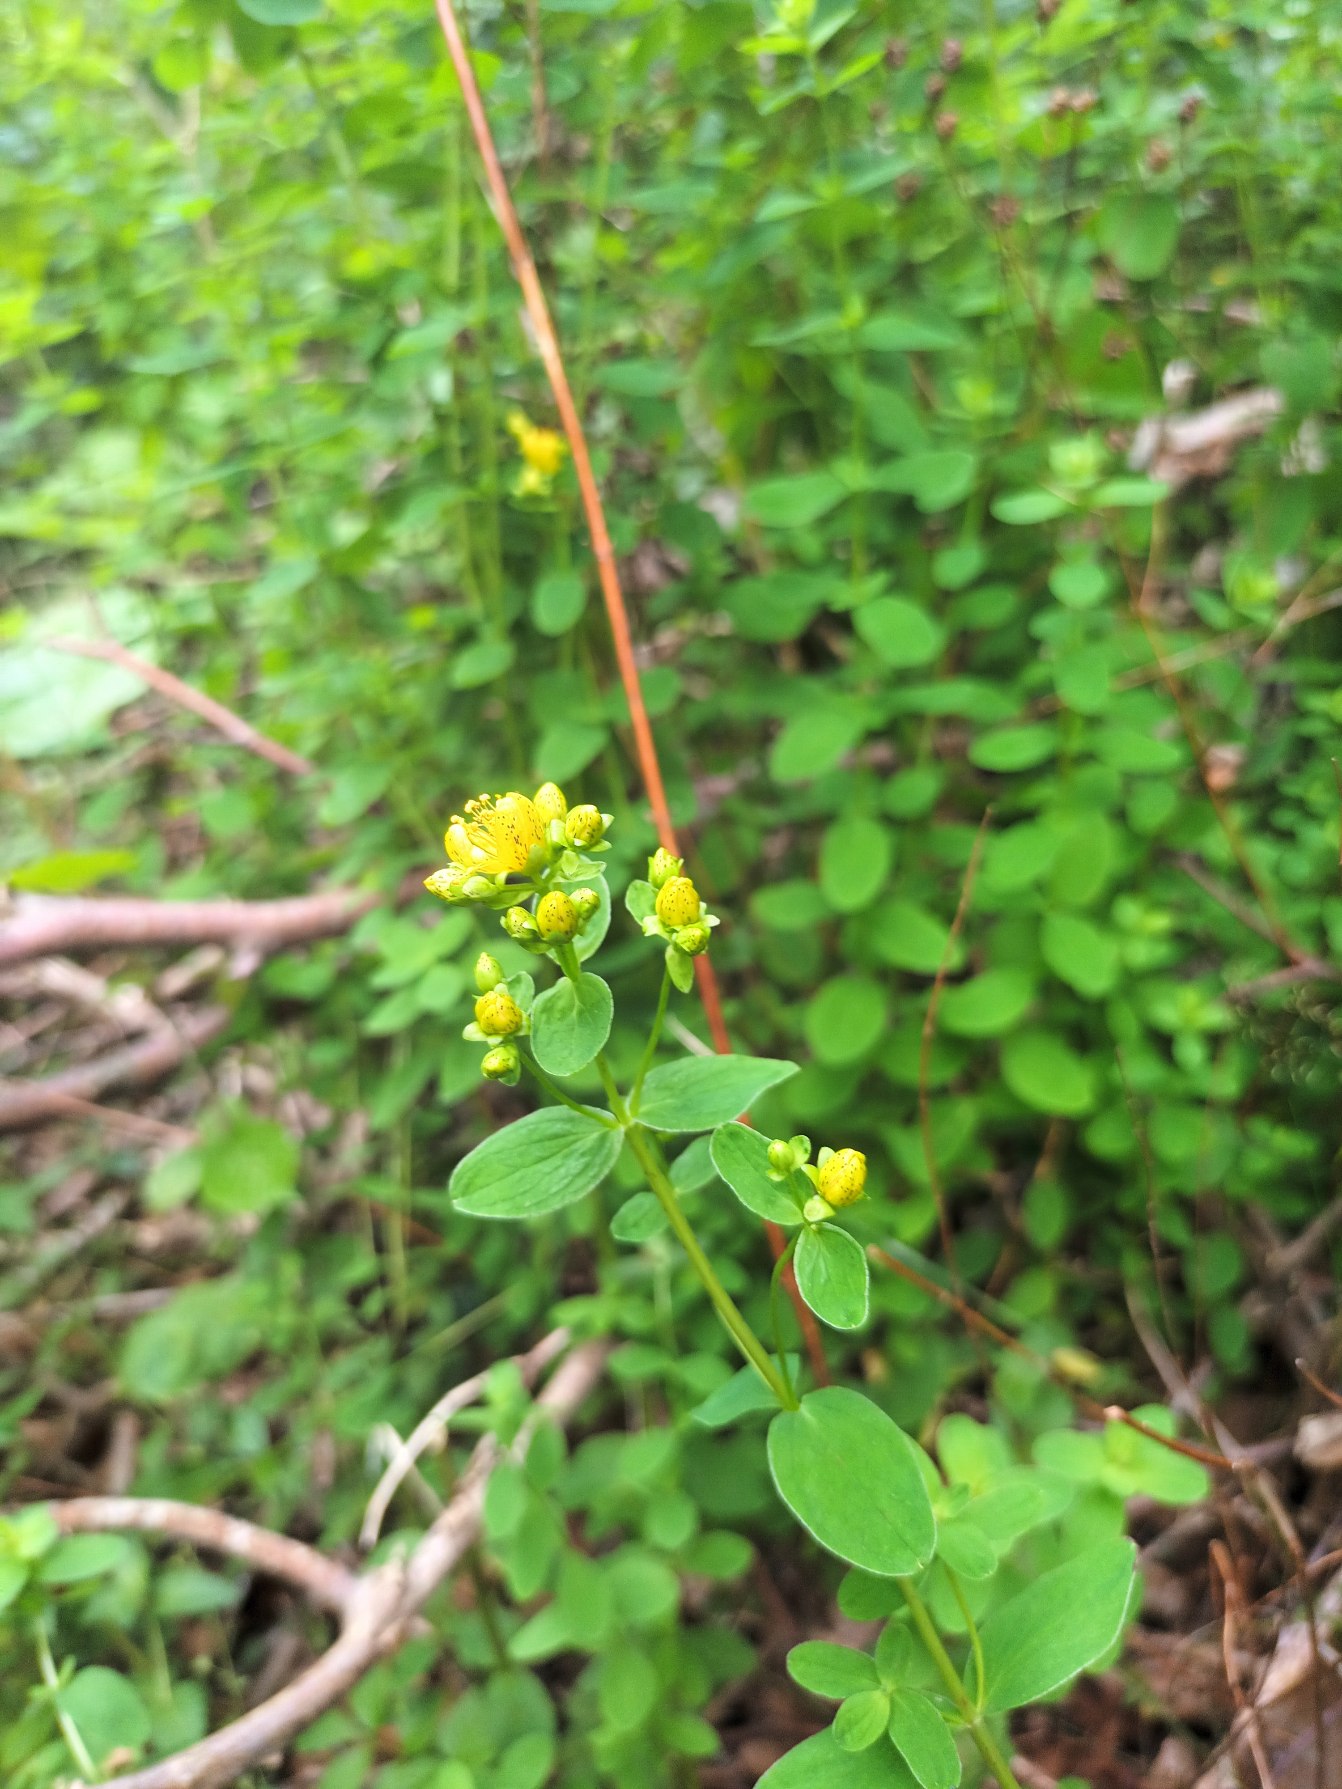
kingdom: Plantae
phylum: Tracheophyta
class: Magnoliopsida
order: Malpighiales
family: Hypericaceae
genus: Hypericum
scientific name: Hypericum maculatum
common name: Kantet perikon
